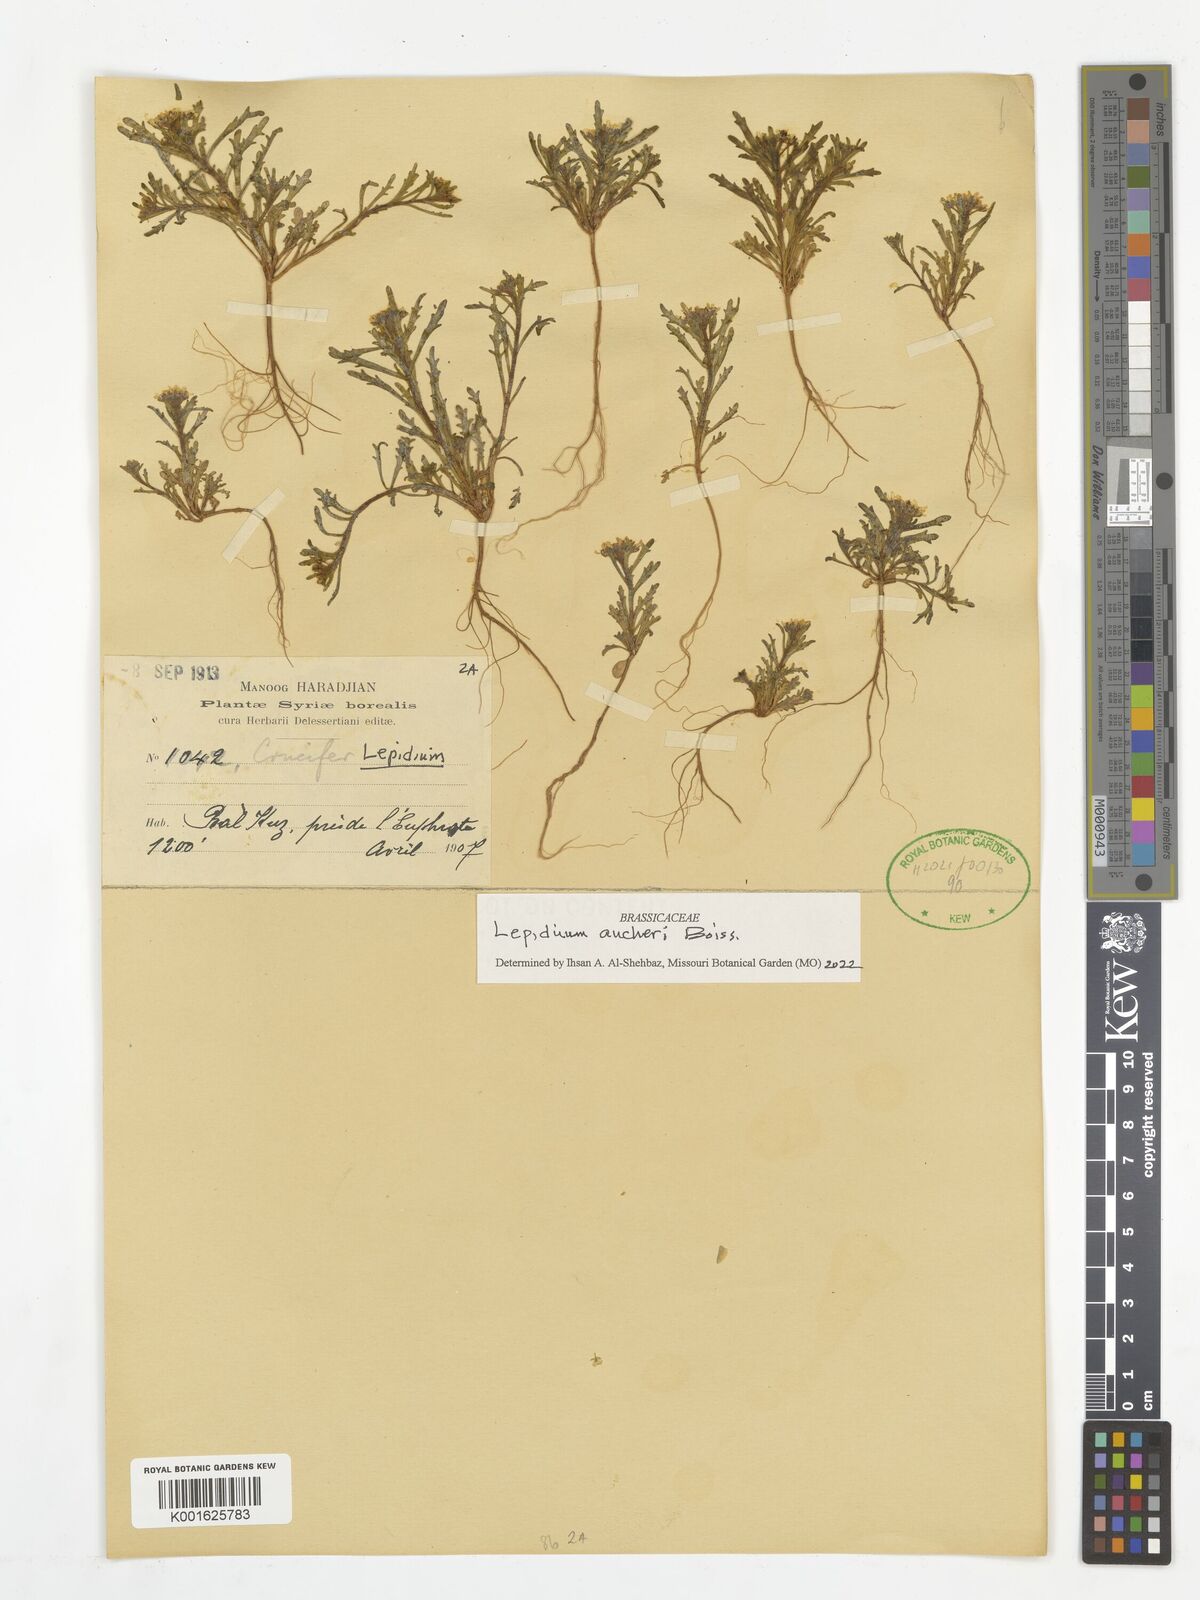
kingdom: Plantae
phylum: Tracheophyta
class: Magnoliopsida
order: Brassicales
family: Brassicaceae
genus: Lepidium
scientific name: Lepidium aucheri
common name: Aucher's peppergrass
